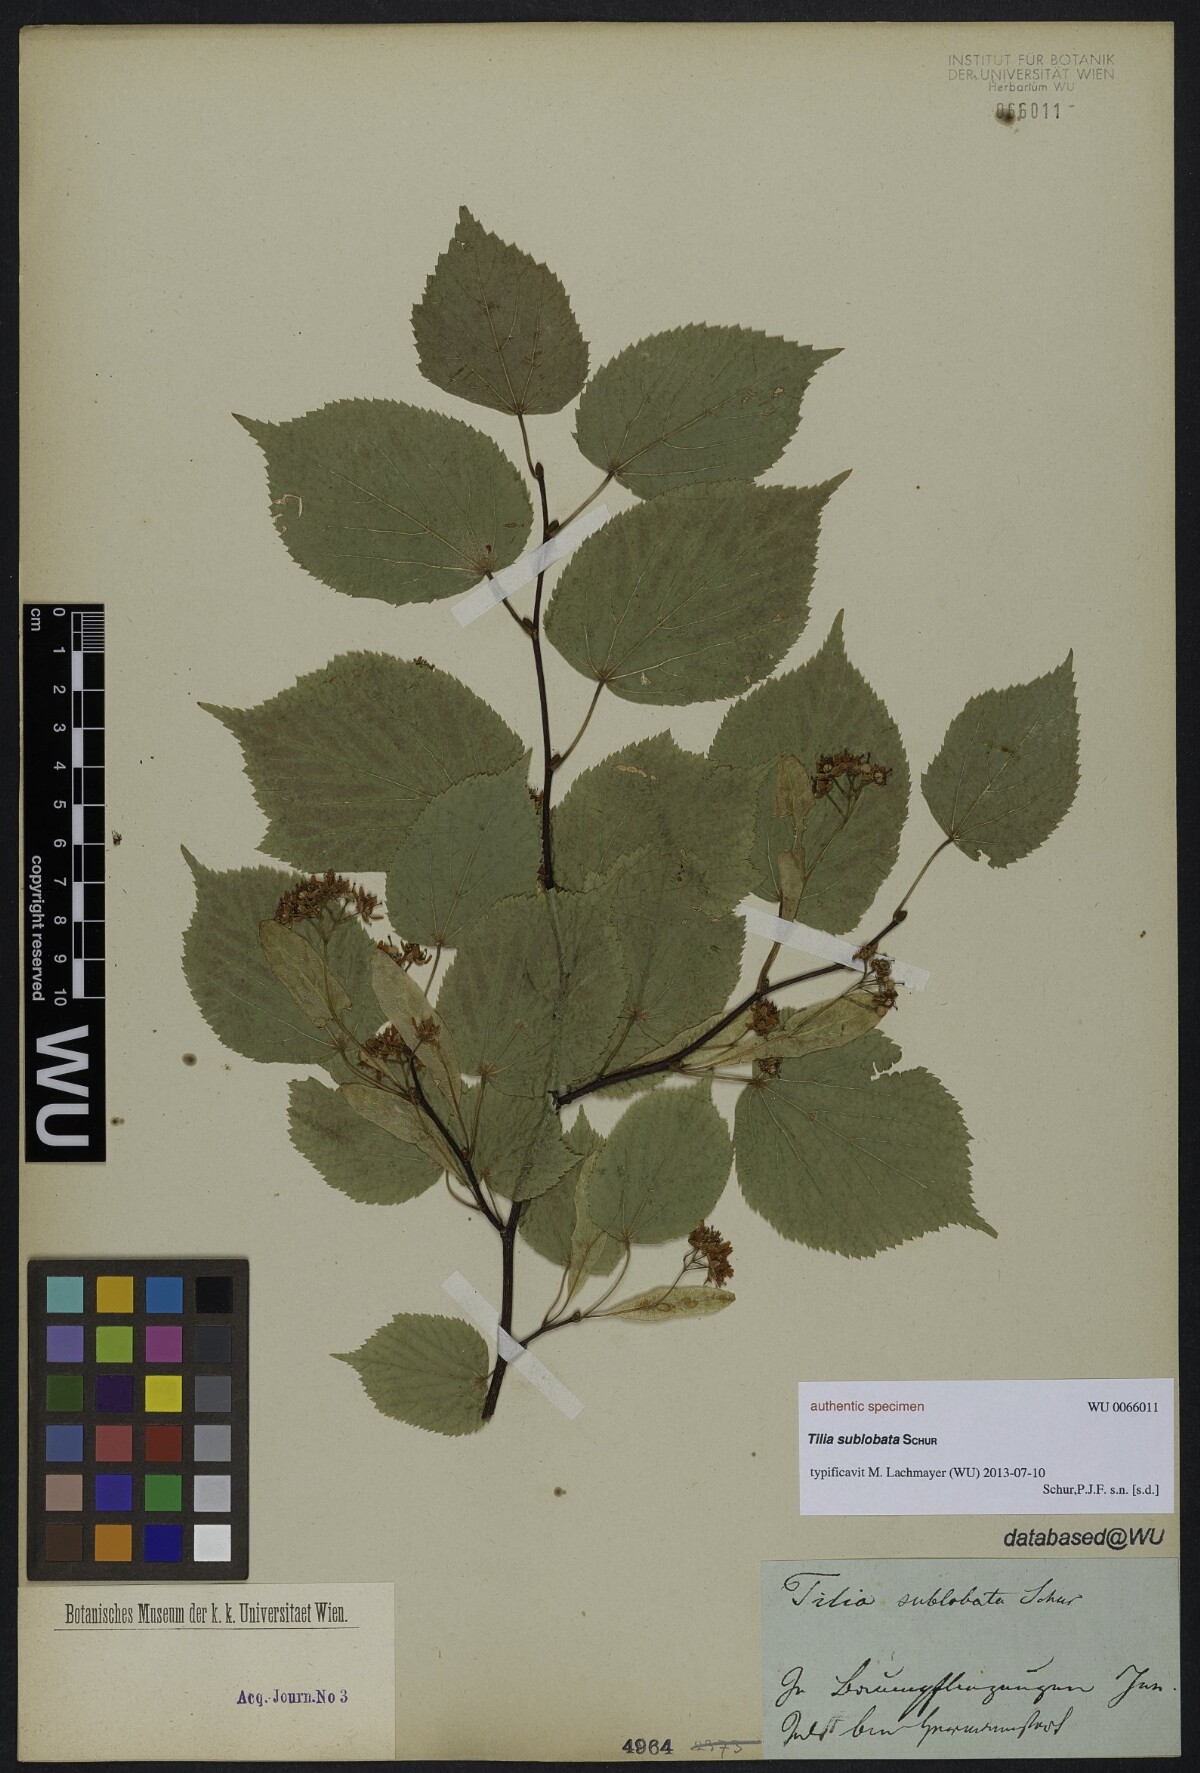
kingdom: Plantae
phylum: Tracheophyta
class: Magnoliopsida
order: Malvales
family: Malvaceae
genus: Tilia
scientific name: Tilia
